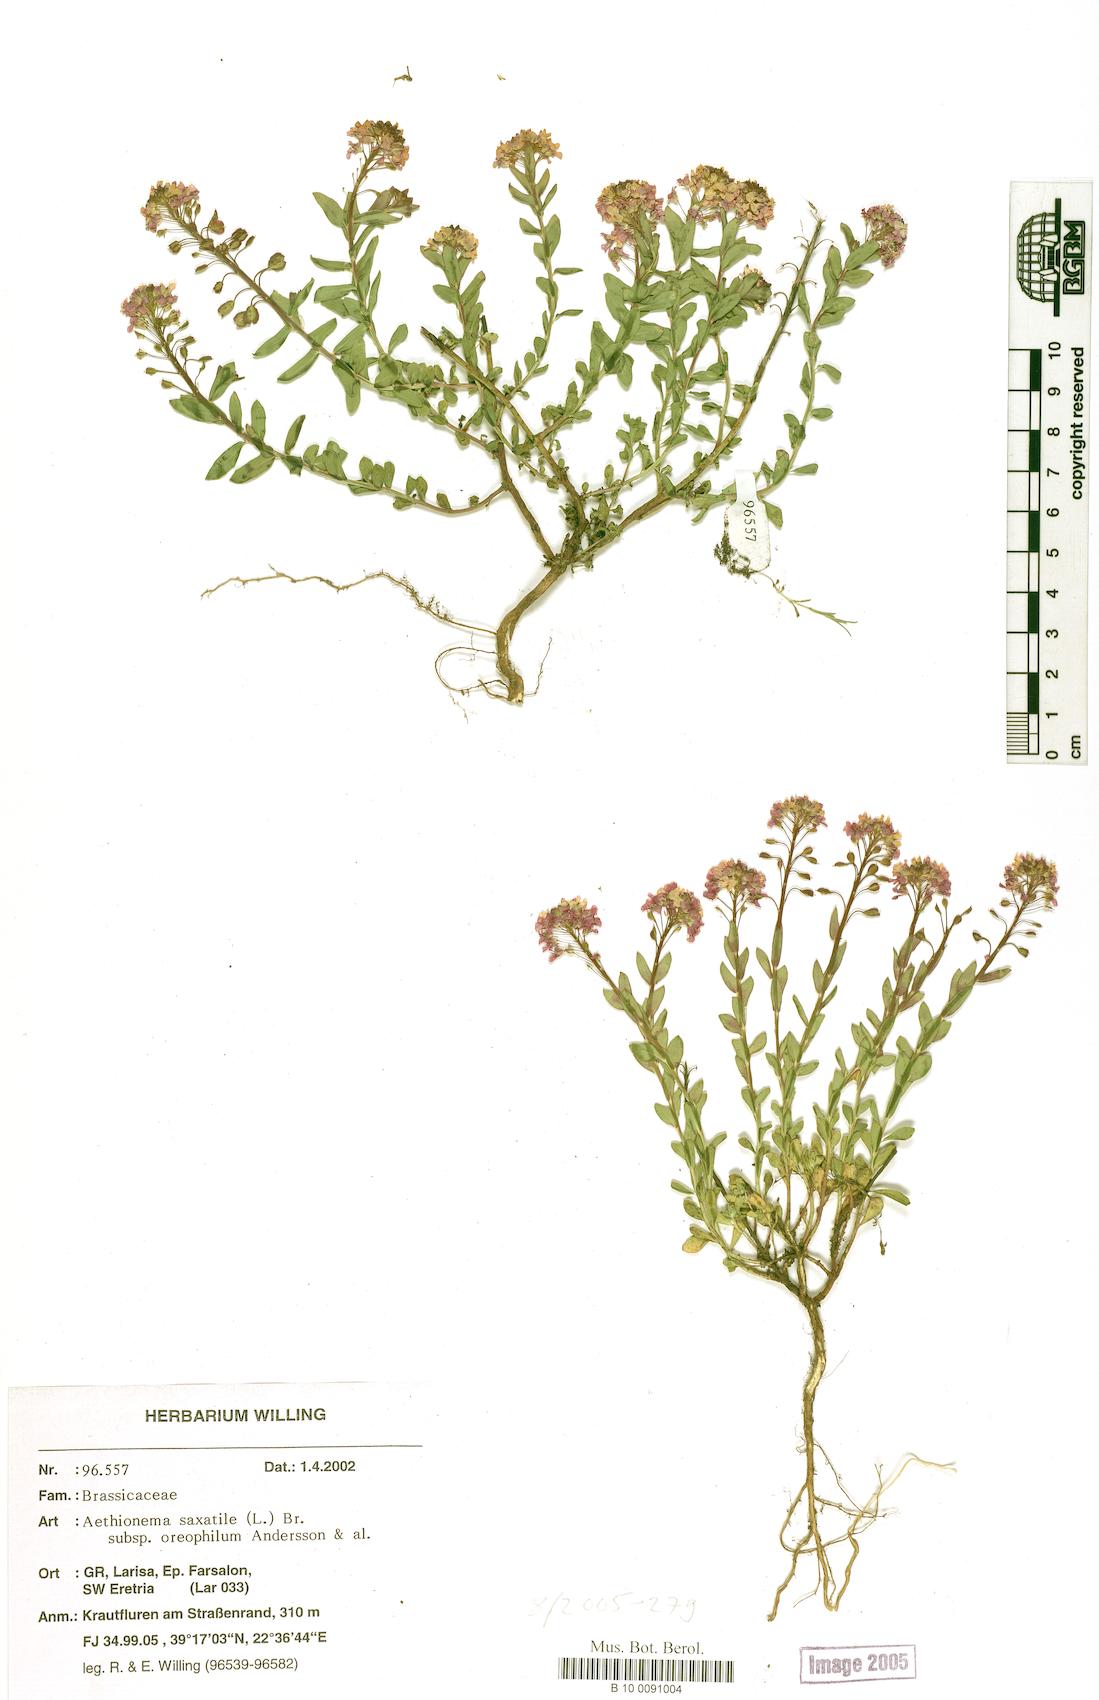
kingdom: Plantae
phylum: Tracheophyta
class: Magnoliopsida
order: Brassicales
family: Brassicaceae
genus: Aethionema
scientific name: Aethionema saxatile
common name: Burnt candytuft
